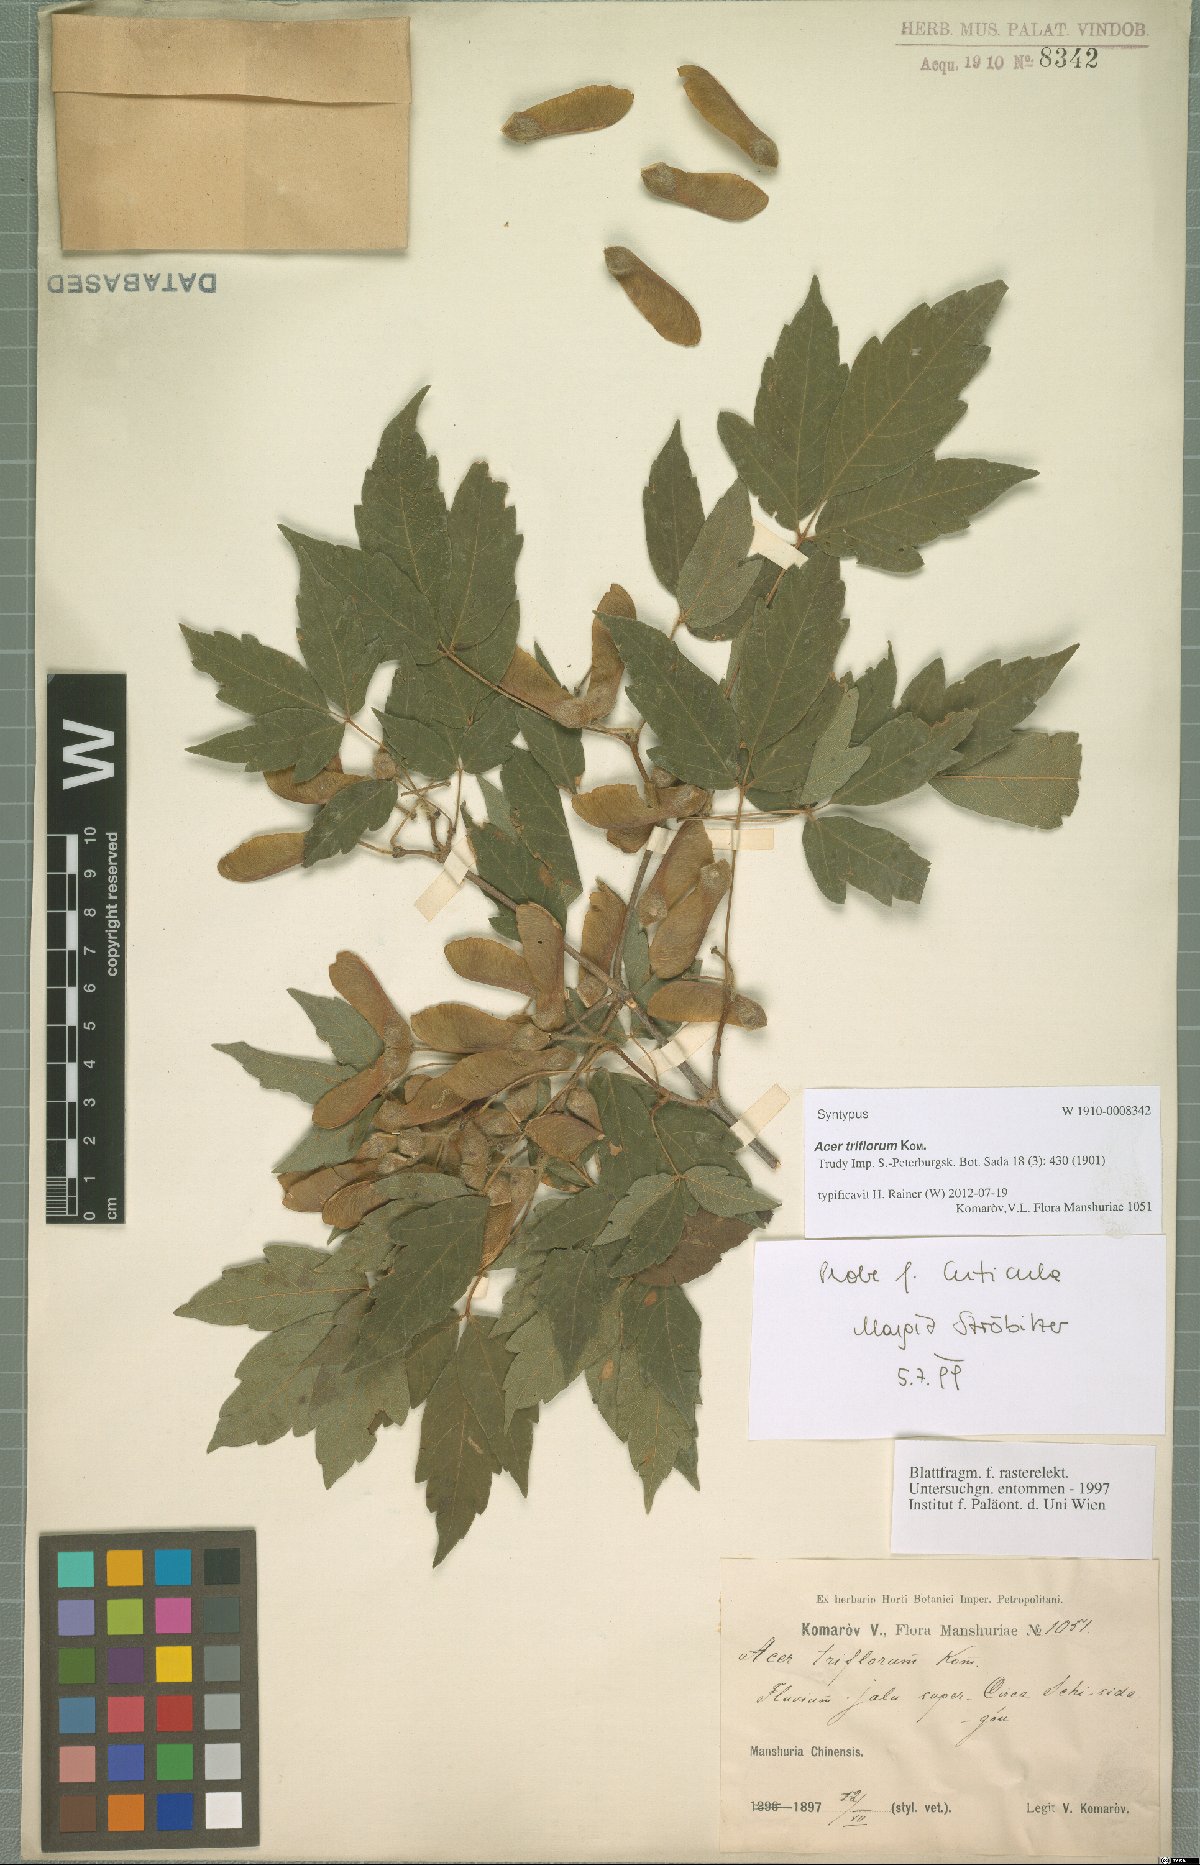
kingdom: Plantae
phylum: Tracheophyta
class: Magnoliopsida
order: Sapindales
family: Sapindaceae
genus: Acer
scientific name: Acer triflorum
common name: Three-flower maple
